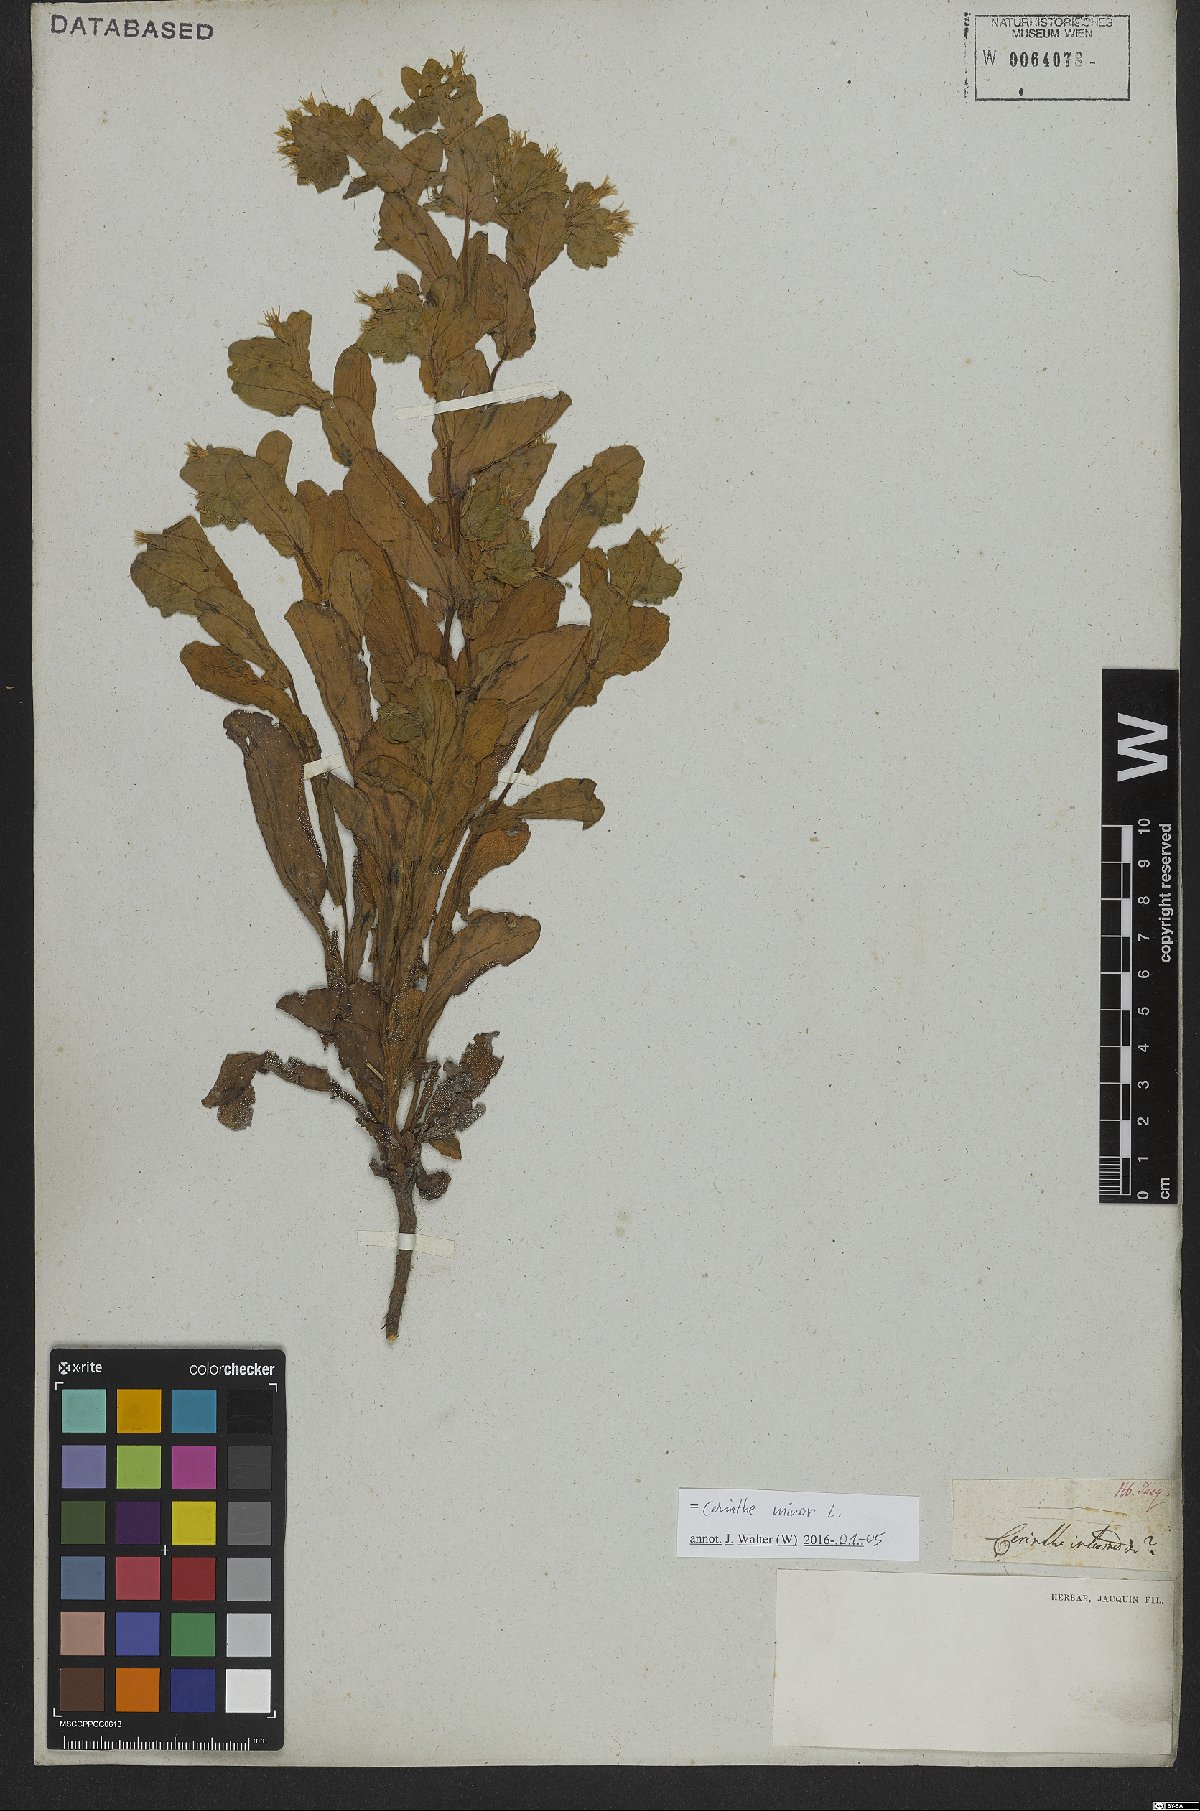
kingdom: Plantae
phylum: Tracheophyta
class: Magnoliopsida
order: Boraginales
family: Boraginaceae
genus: Cerinthe
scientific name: Cerinthe minor
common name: Lesser honeywort
